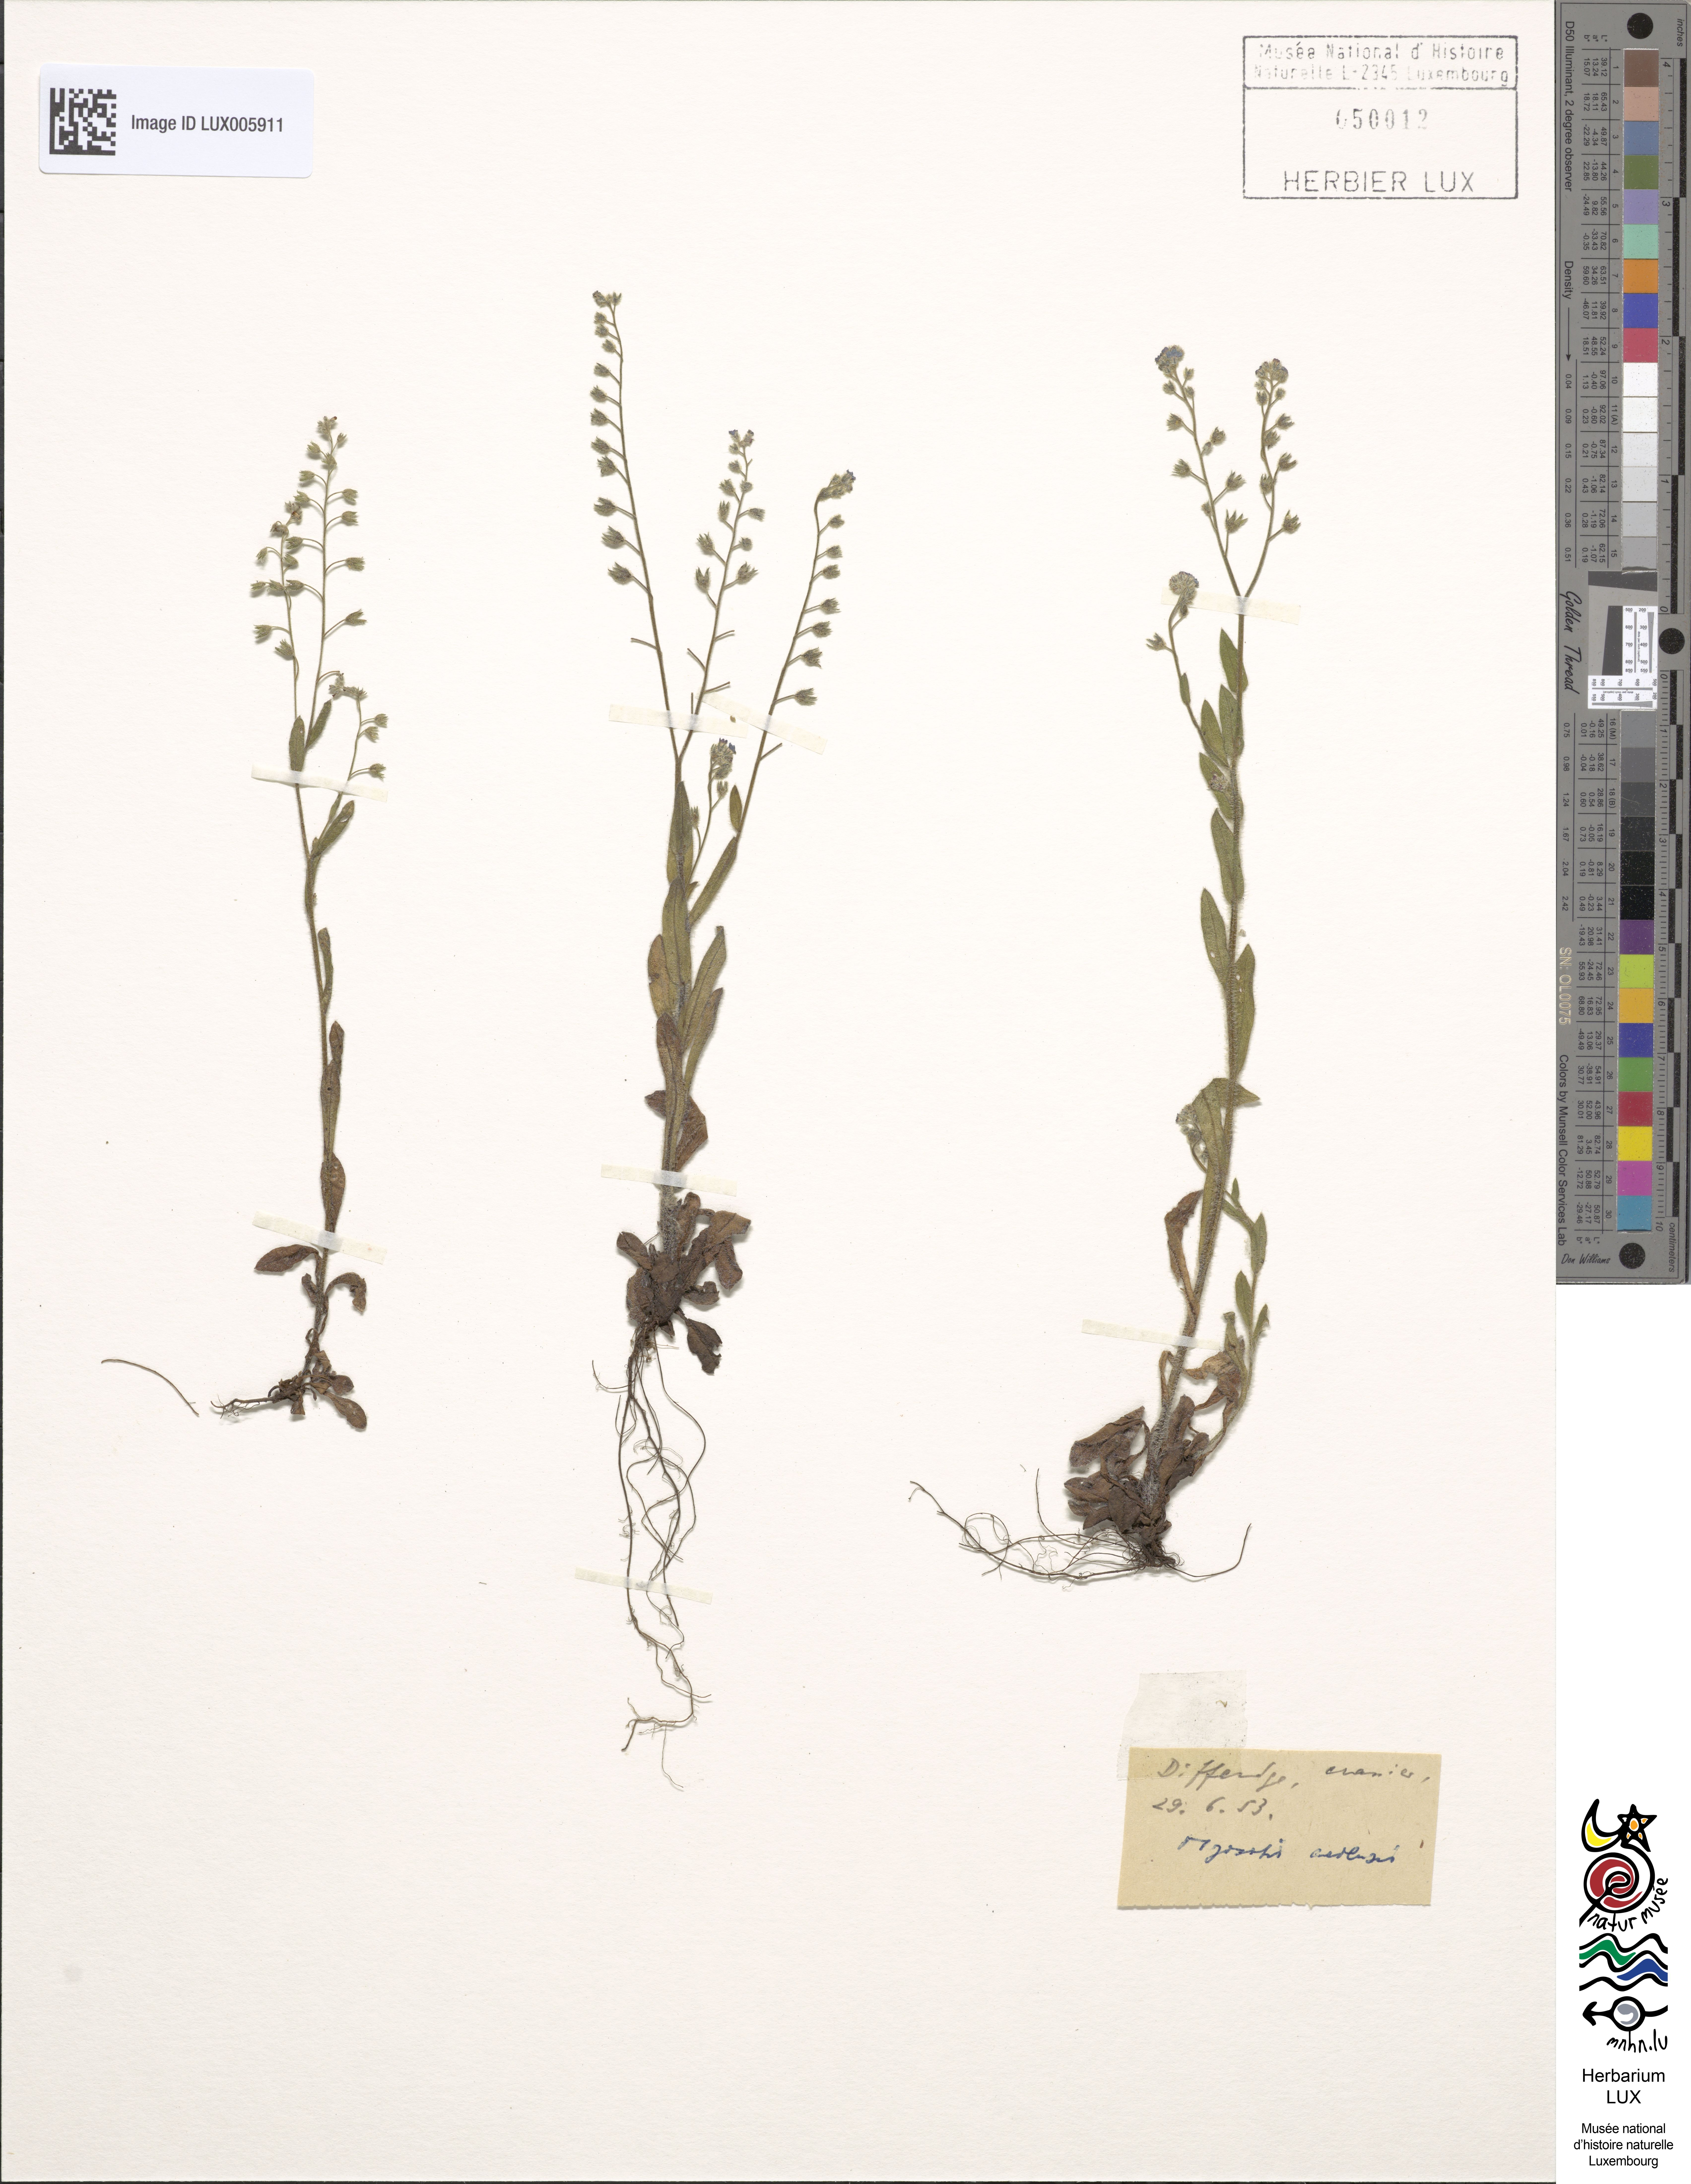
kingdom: Plantae
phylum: Tracheophyta
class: Magnoliopsida
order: Boraginales
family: Boraginaceae
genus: Myosotis
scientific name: Myosotis arvensis
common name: Field forget-me-not
